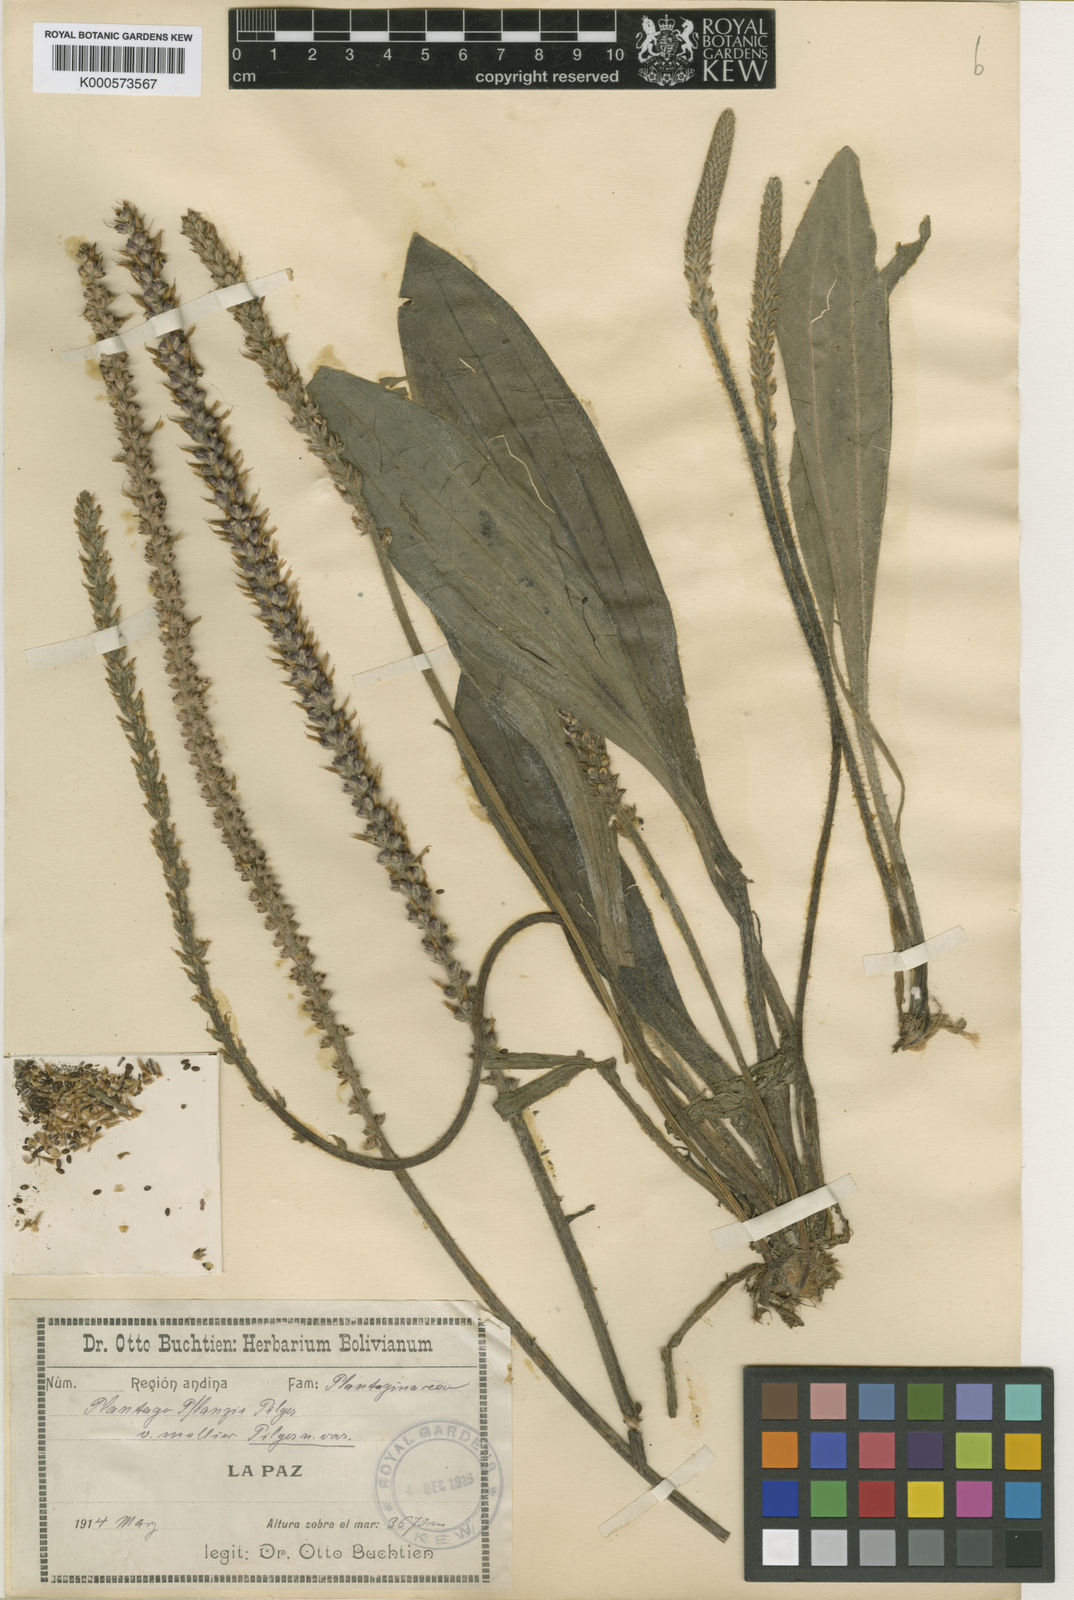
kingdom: Plantae
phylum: Tracheophyta
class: Magnoliopsida
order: Lamiales
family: Plantaginaceae
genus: Plantago
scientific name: Plantago australis
